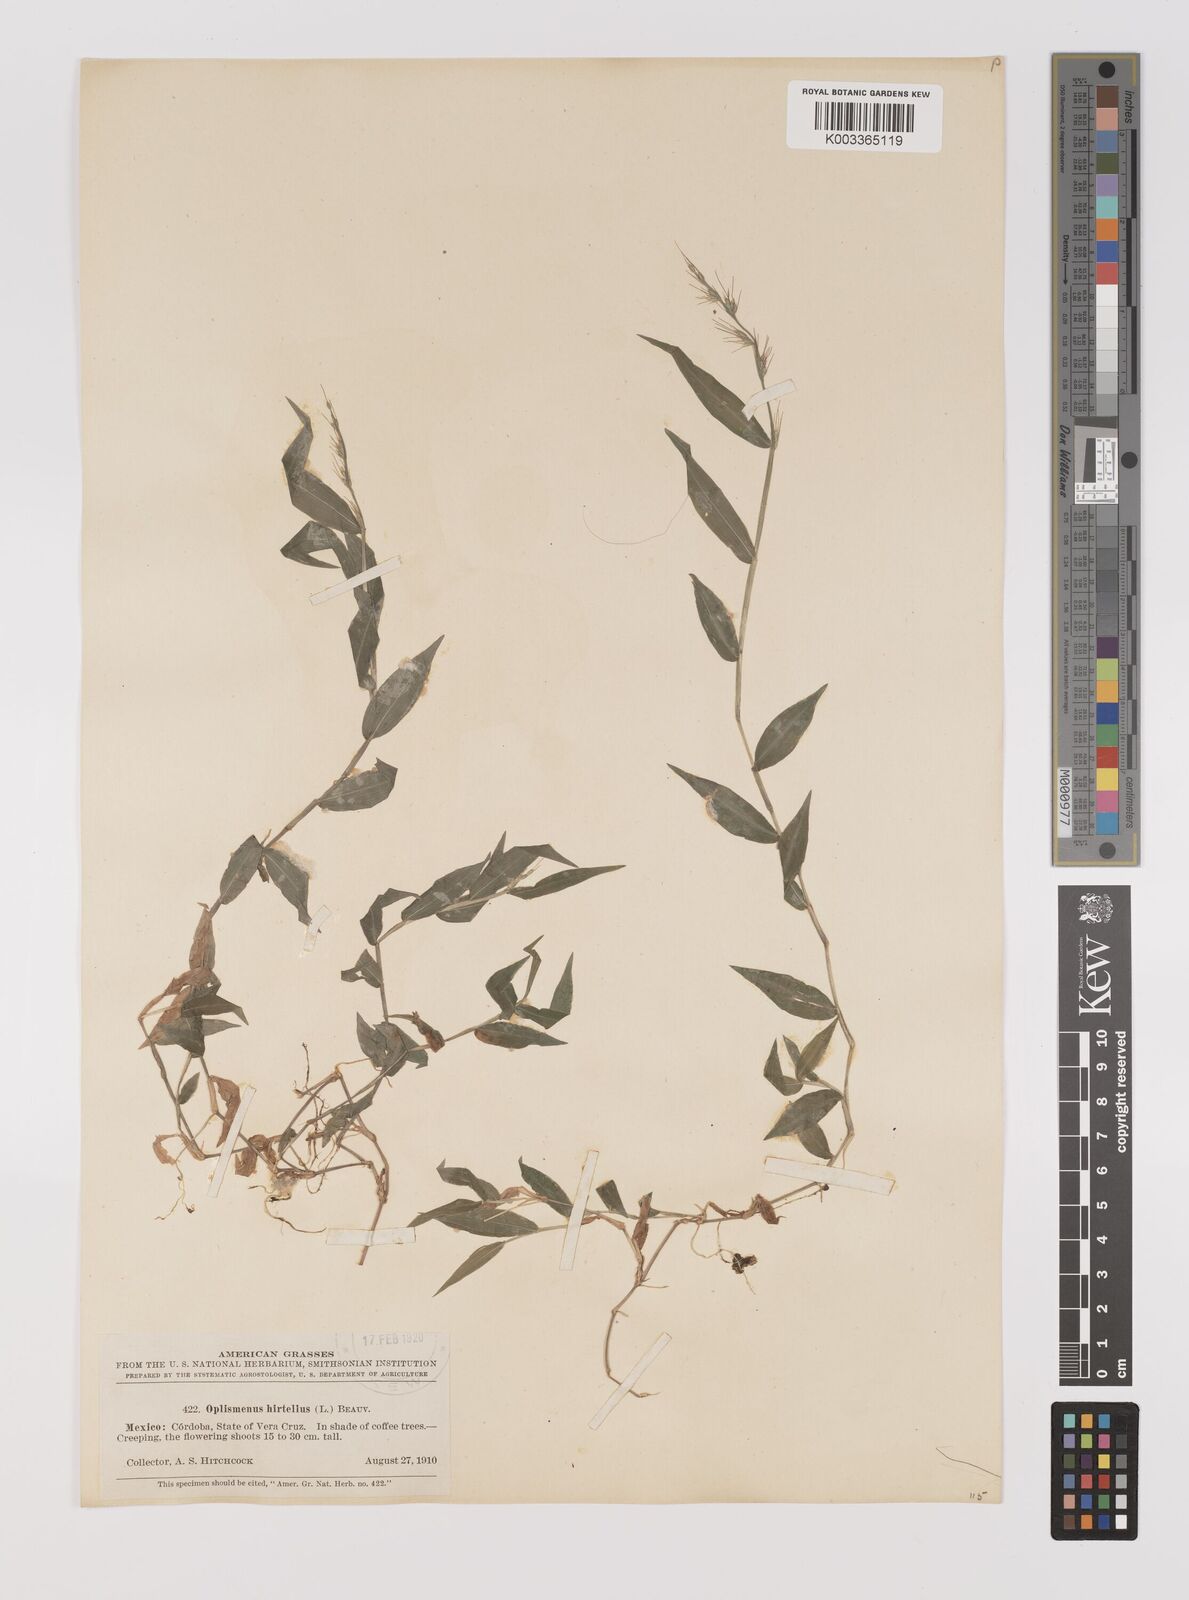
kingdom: Plantae
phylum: Tracheophyta
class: Liliopsida
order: Poales
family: Poaceae
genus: Oplismenus
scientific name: Oplismenus hirtellus
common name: Basketgrass
